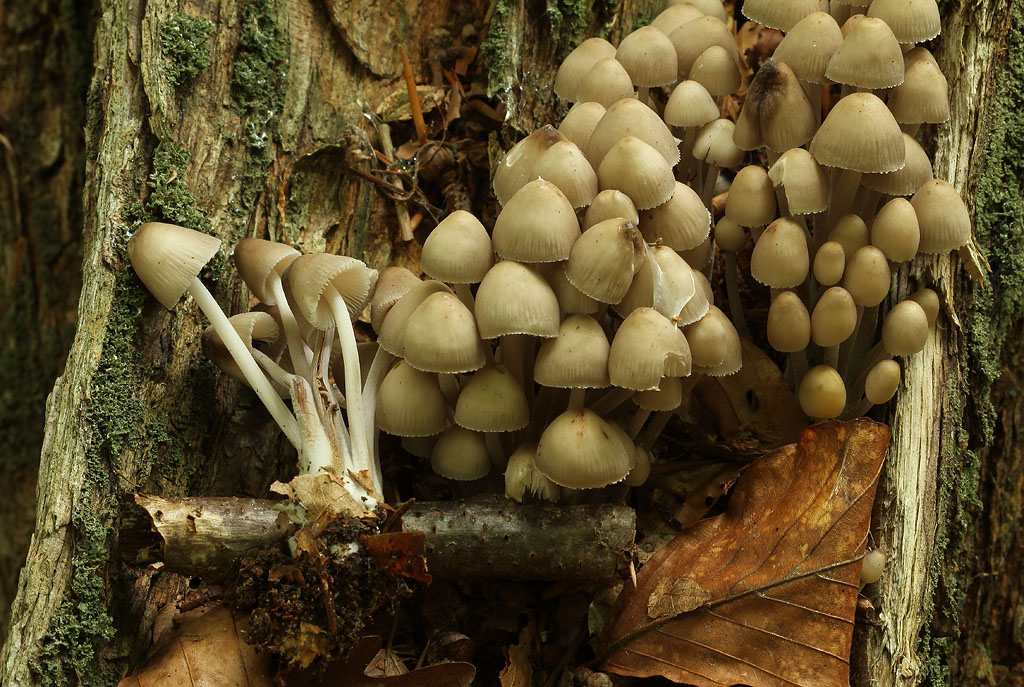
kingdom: Fungi
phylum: Basidiomycota
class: Agaricomycetes
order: Agaricales
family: Mycenaceae
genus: Mycena
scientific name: Mycena inclinata
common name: nikkende huesvamp
